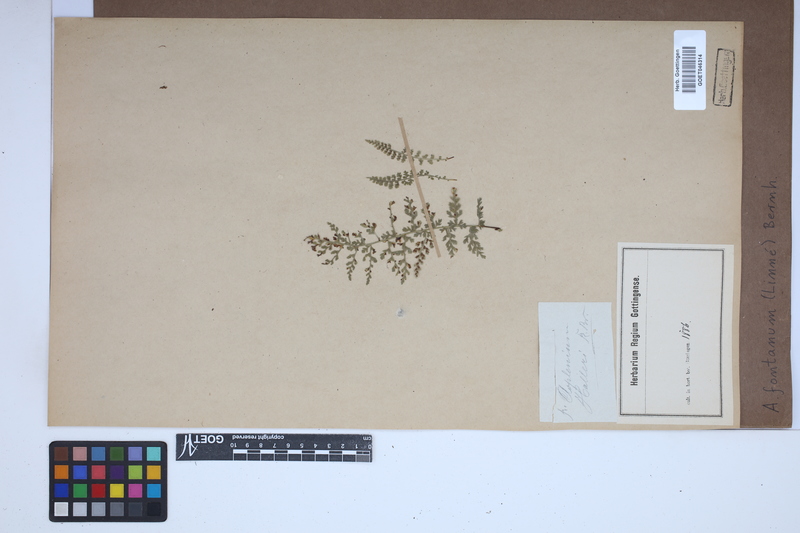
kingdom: Plantae
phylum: Tracheophyta
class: Polypodiopsida
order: Polypodiales
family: Aspleniaceae
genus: Asplenium
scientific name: Asplenium fontanum
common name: Fountain spleenwort
